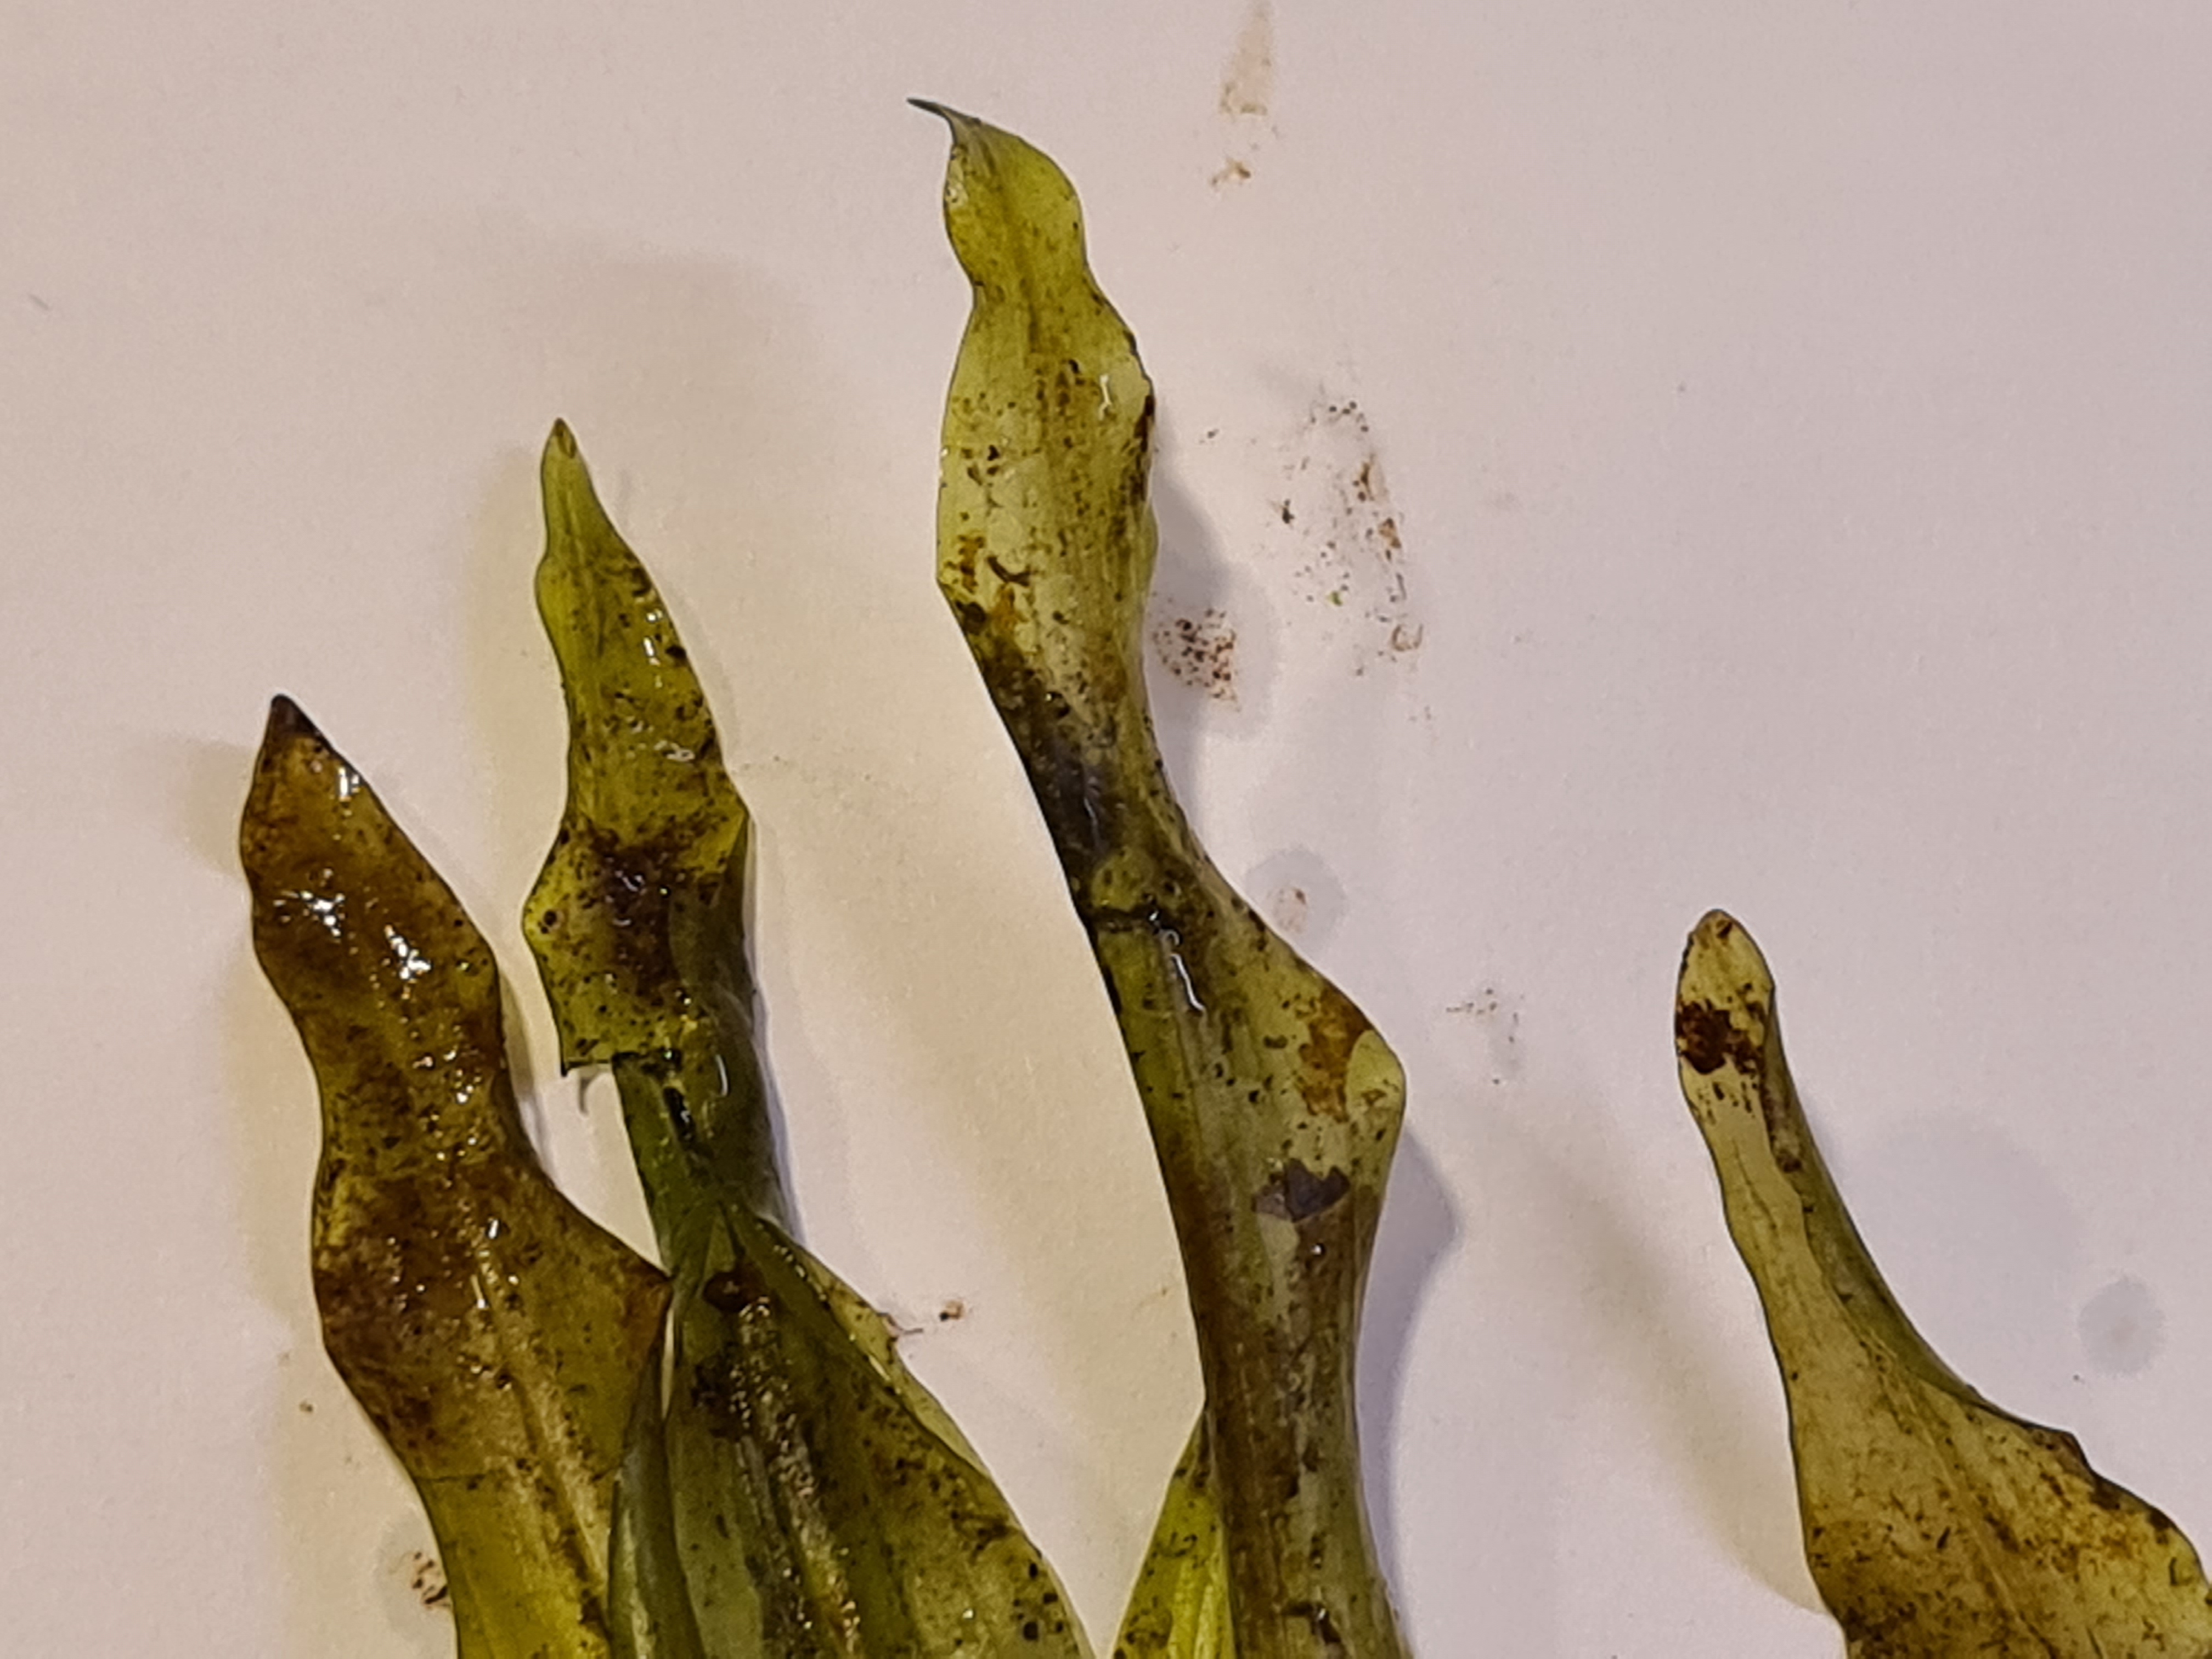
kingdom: Plantae
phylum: Tracheophyta
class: Liliopsida
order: Alismatales
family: Potamogetonaceae
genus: Potamogeton
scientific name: Potamogeton alpinus
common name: Rust-vandaks
